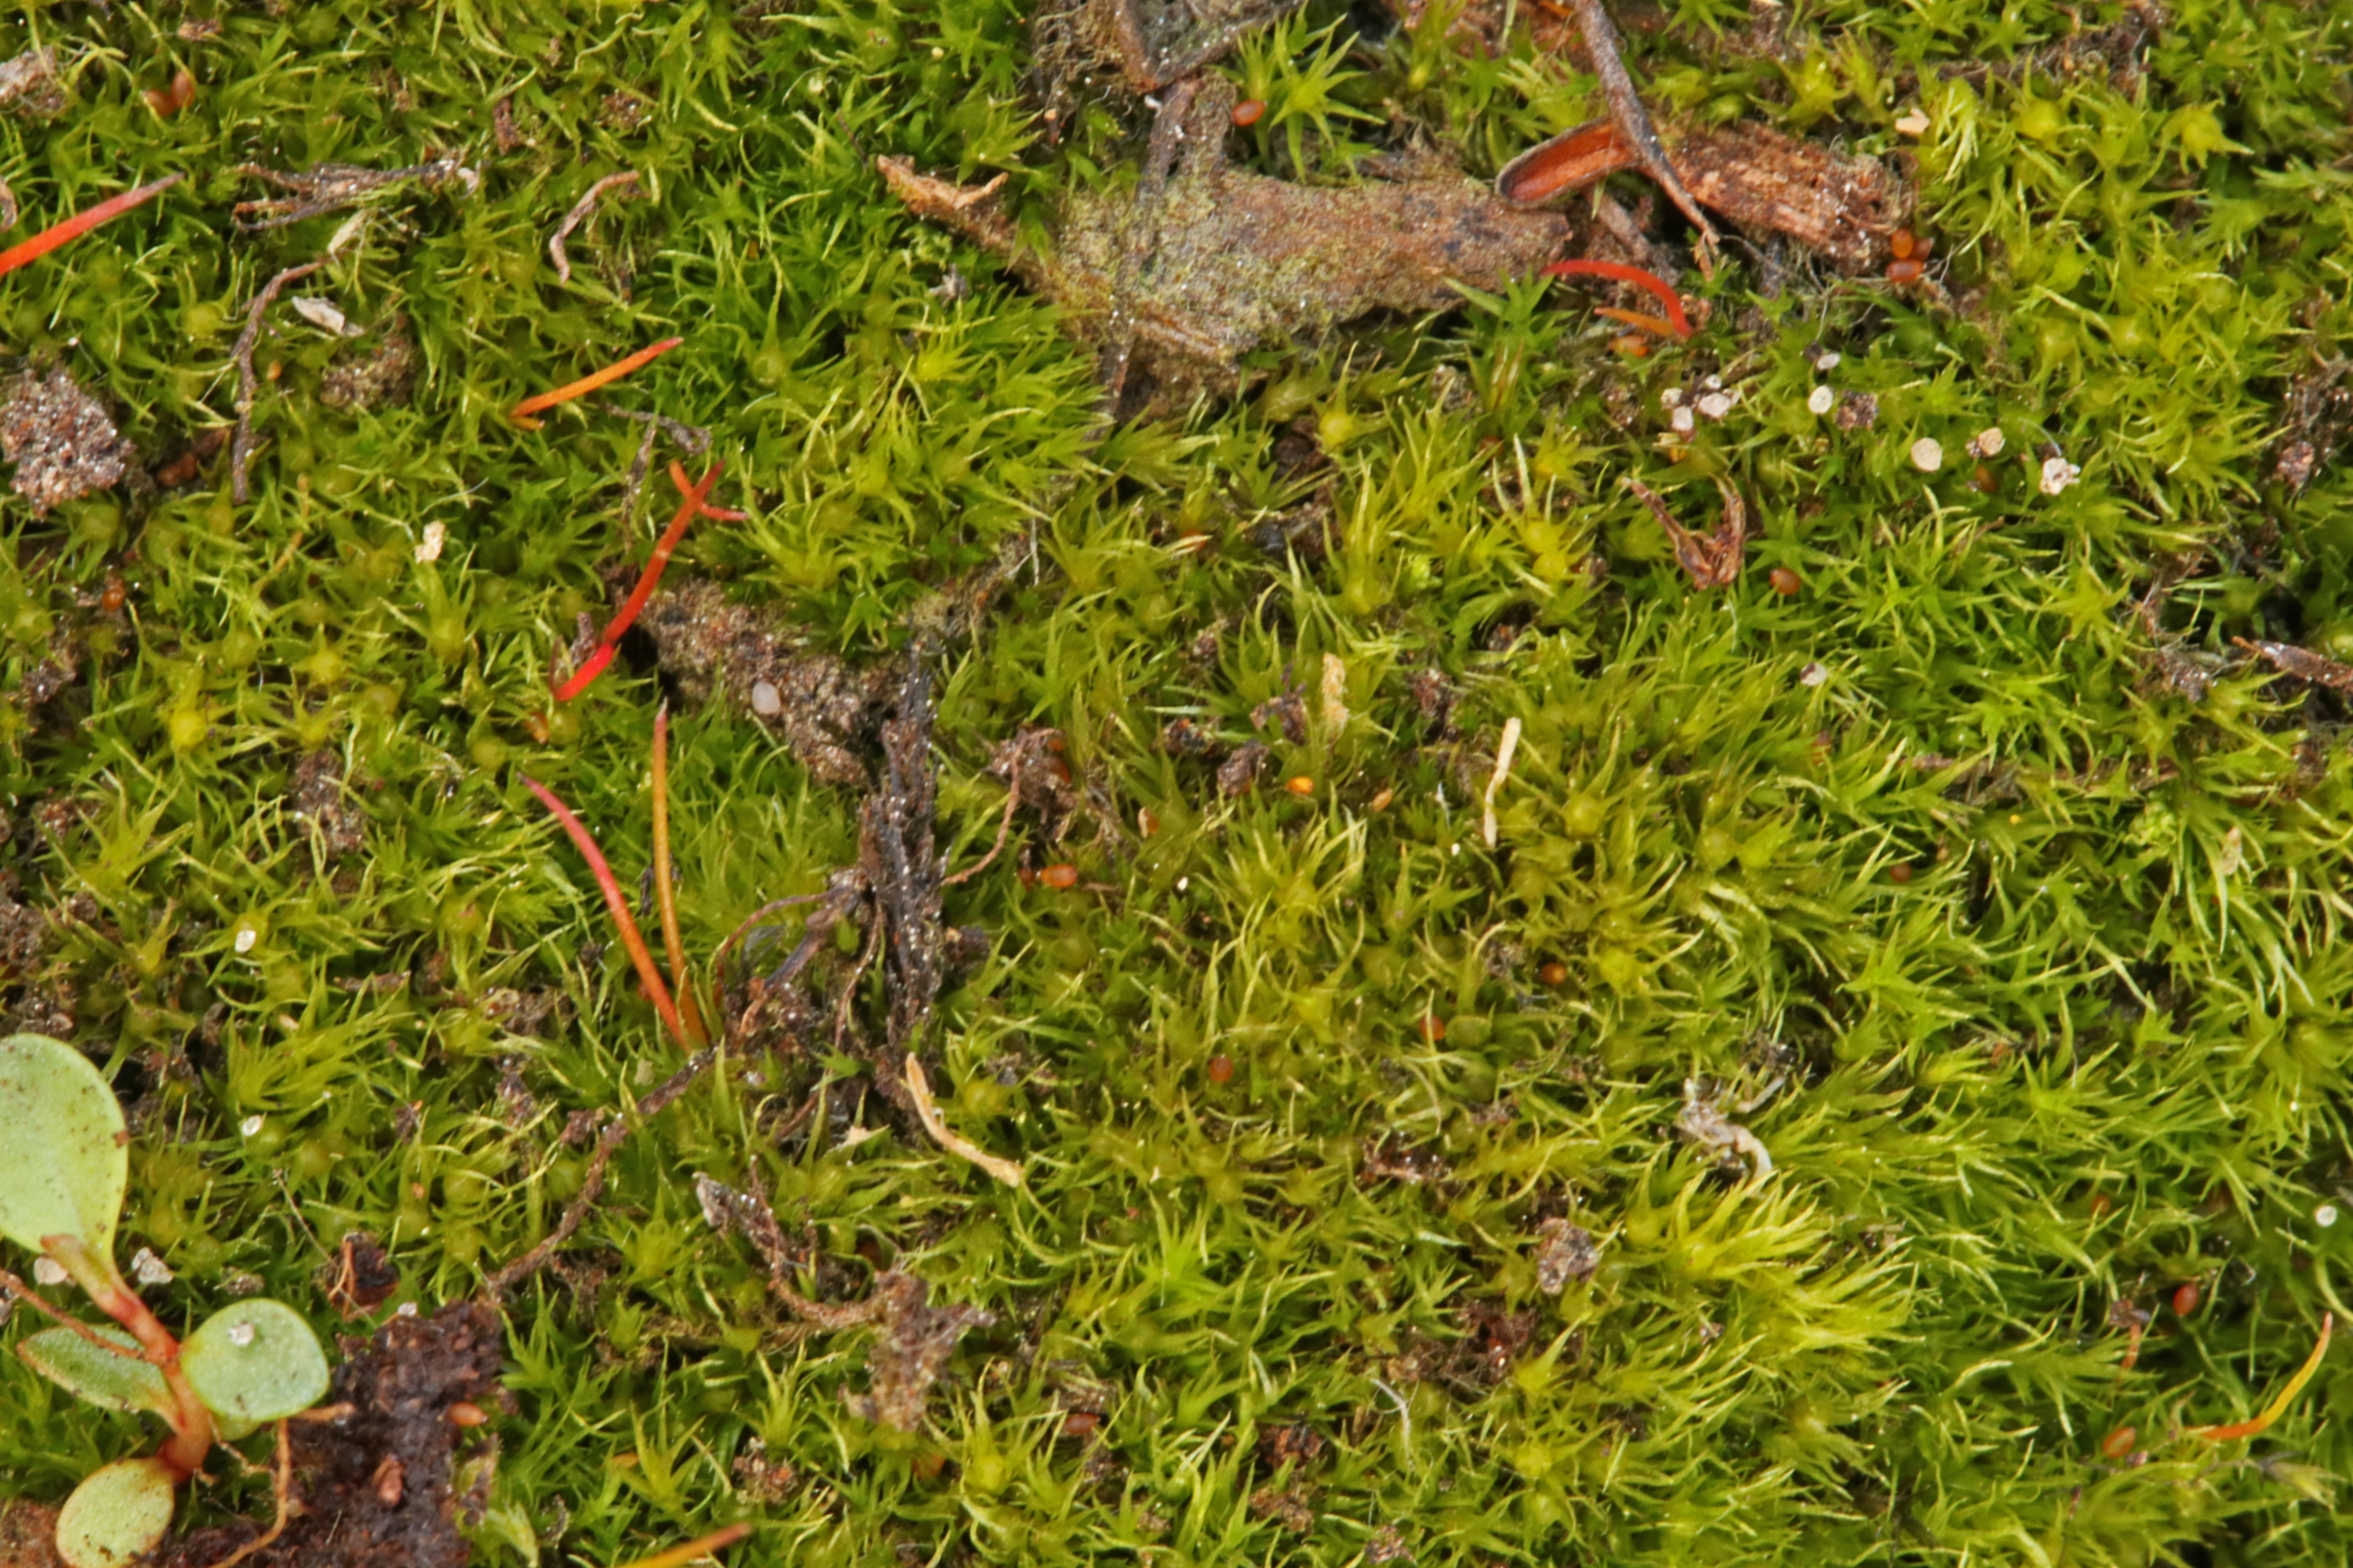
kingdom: Plantae
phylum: Bryophyta
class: Bryopsida
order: Archidiales
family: Archidiaceae
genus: Archidium
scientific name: Archidium alternifolium
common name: Stor sporemos
